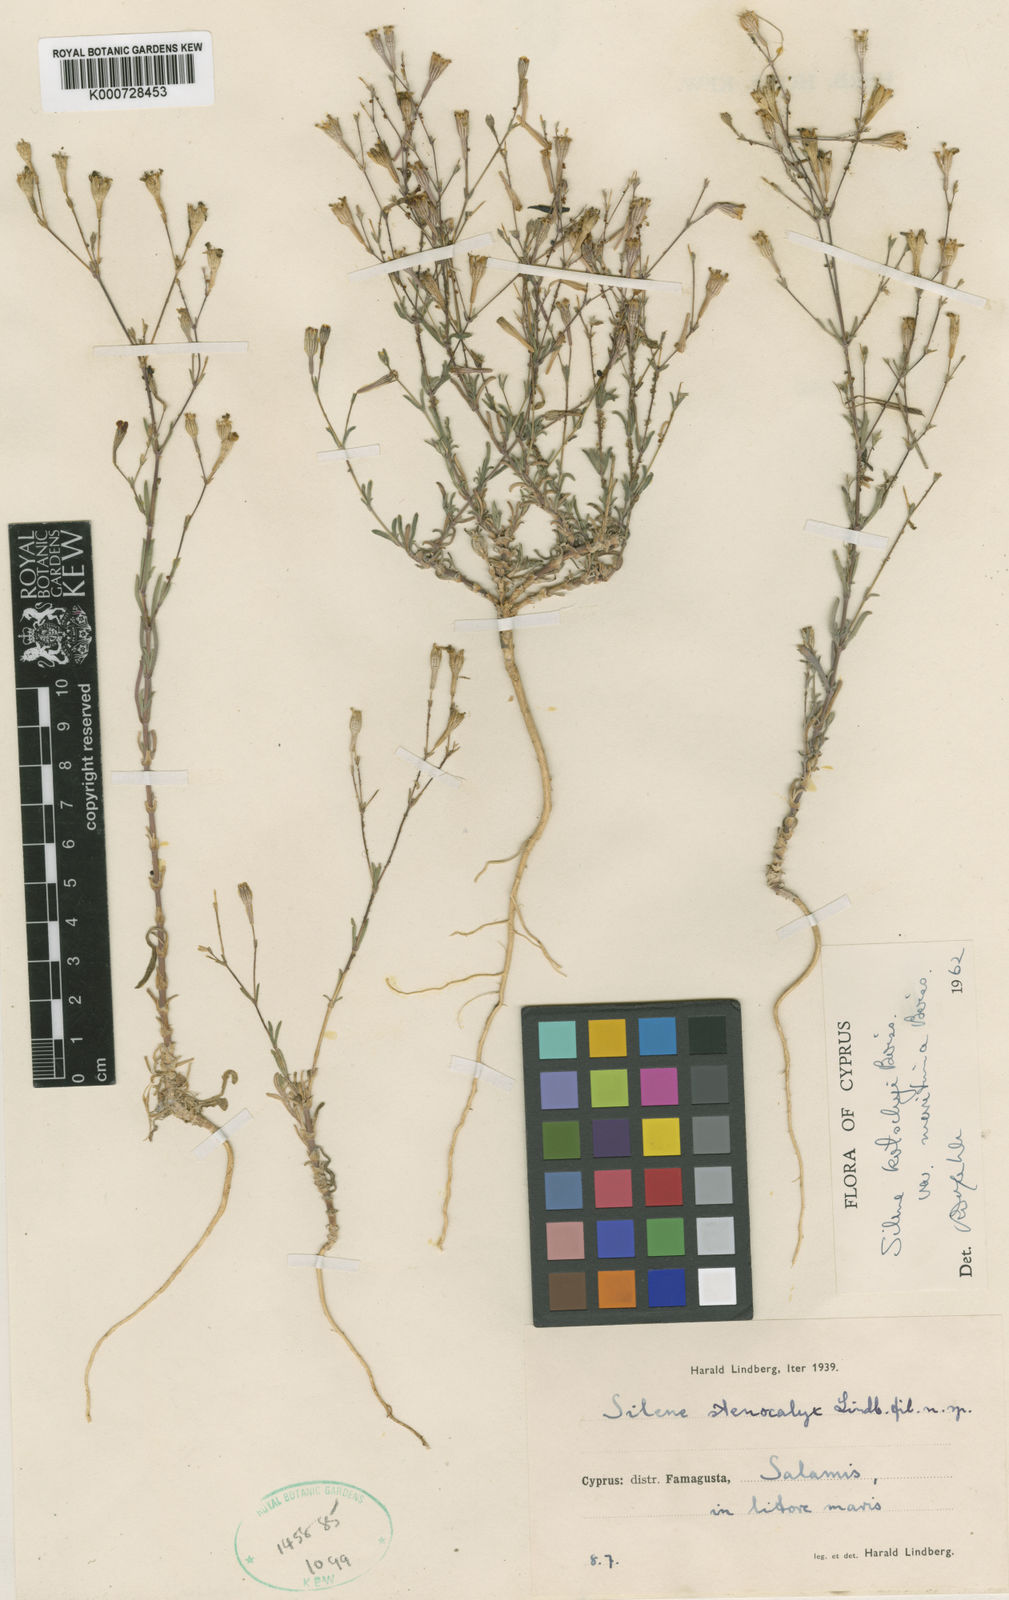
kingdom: Plantae
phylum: Tracheophyta
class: Magnoliopsida
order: Caryophyllales
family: Caryophyllaceae
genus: Silene
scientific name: Silene microsperma
